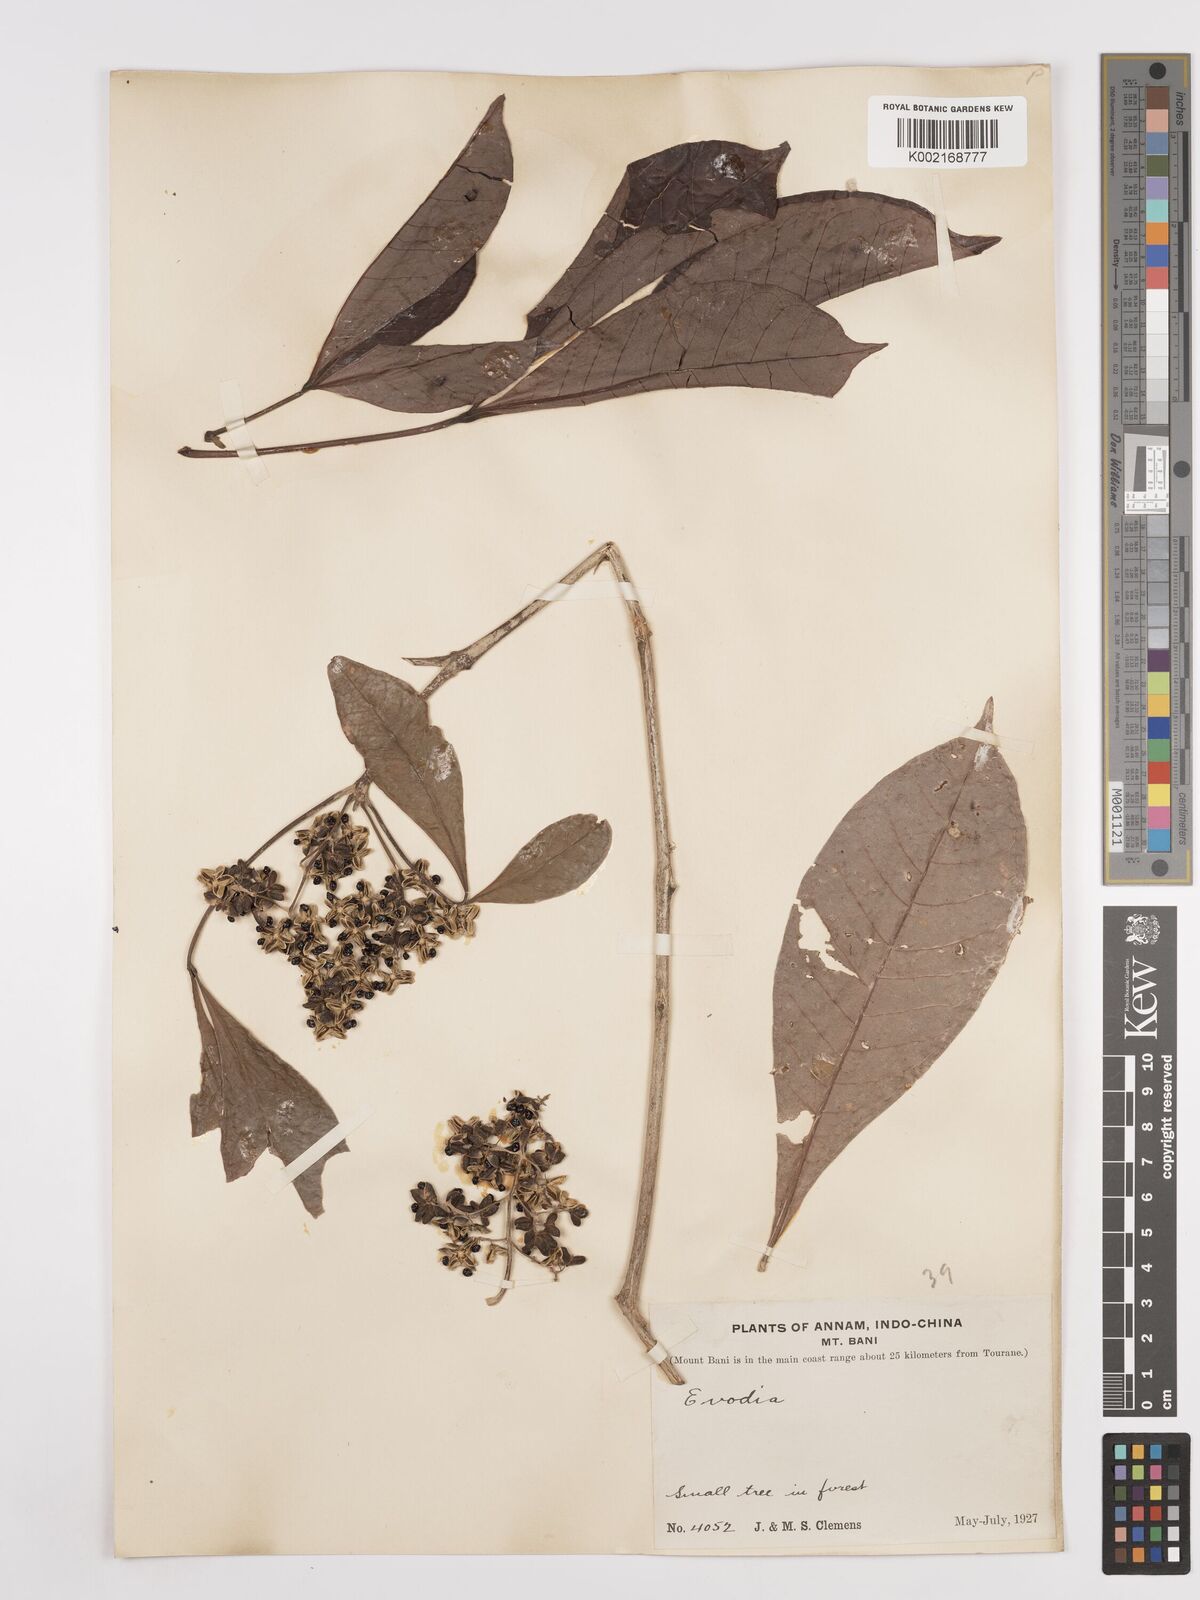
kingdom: Plantae
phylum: Tracheophyta
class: Magnoliopsida
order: Sapindales
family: Rutaceae
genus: Euodia
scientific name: Euodia
